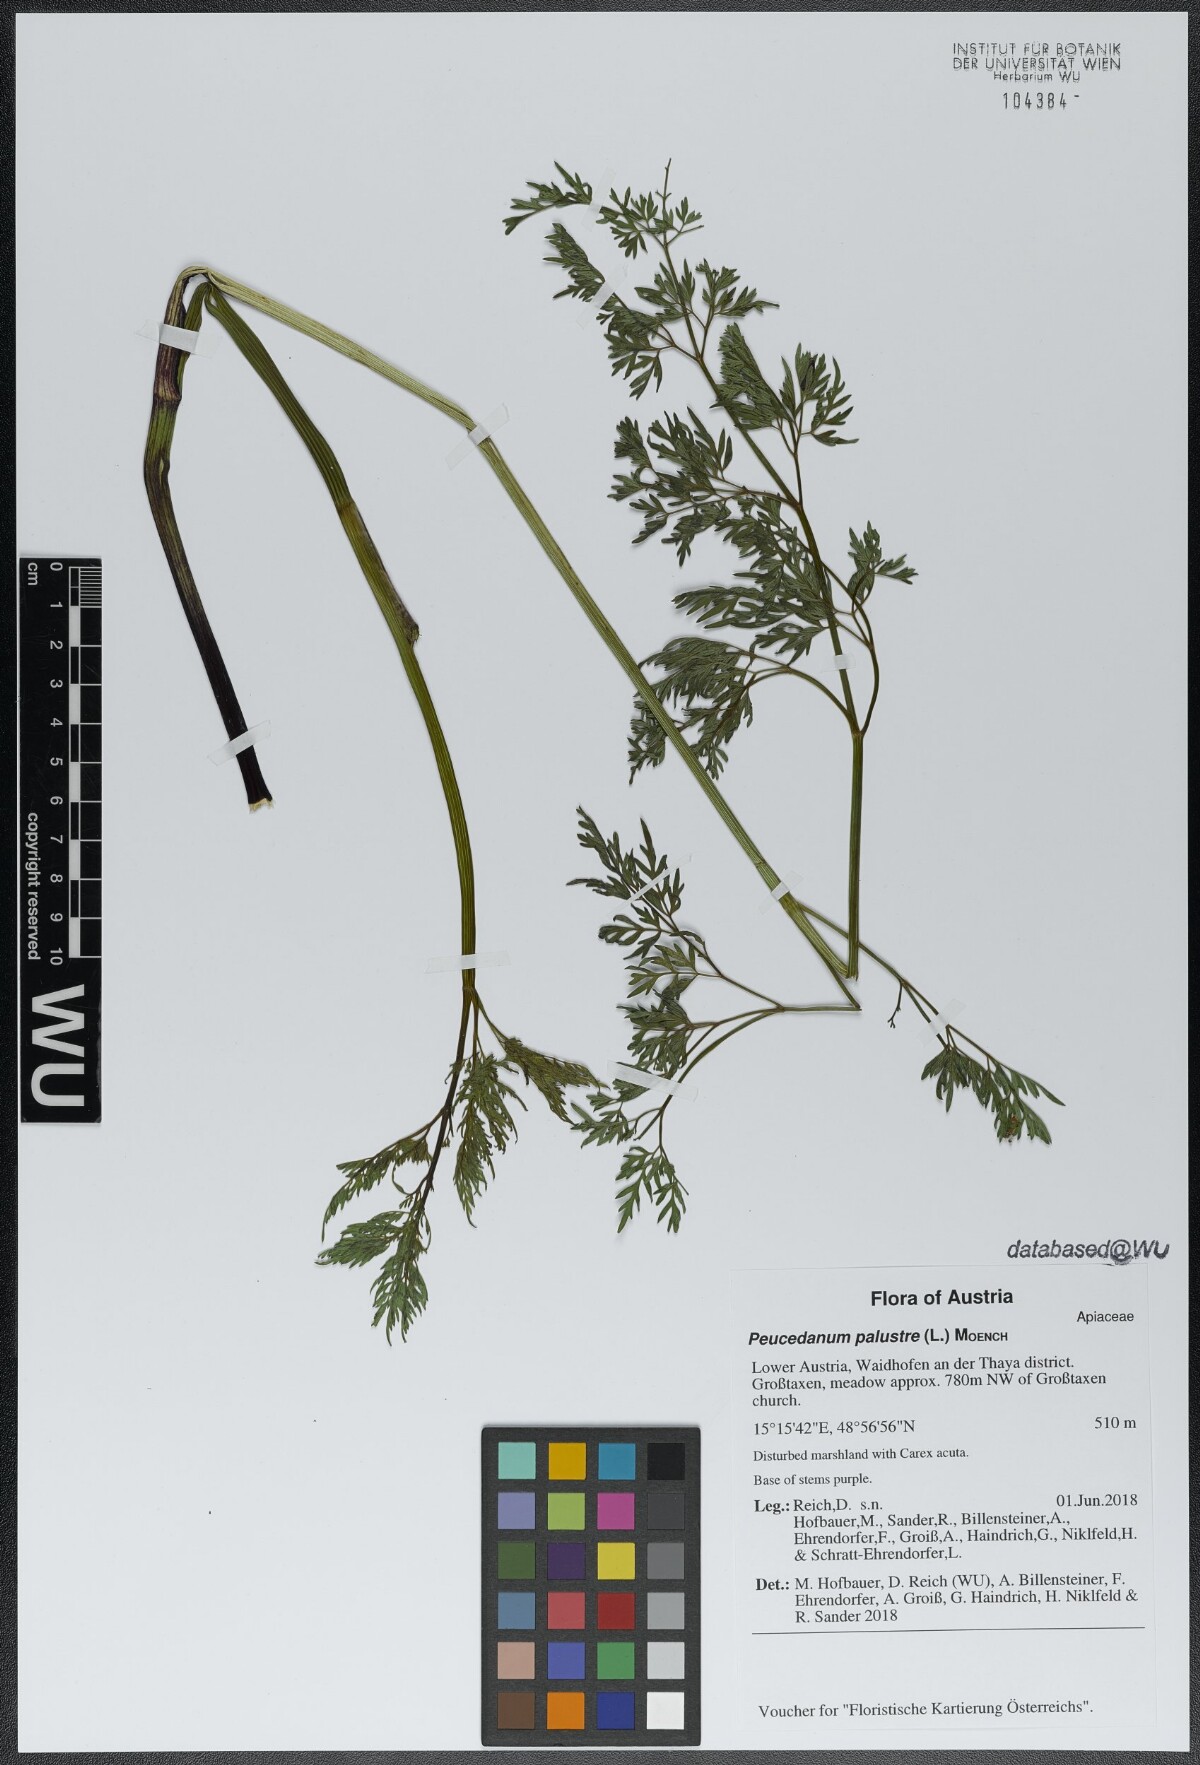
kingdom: Plantae
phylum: Tracheophyta
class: Magnoliopsida
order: Apiales
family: Apiaceae
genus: Thysselinum
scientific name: Thysselinum palustre
